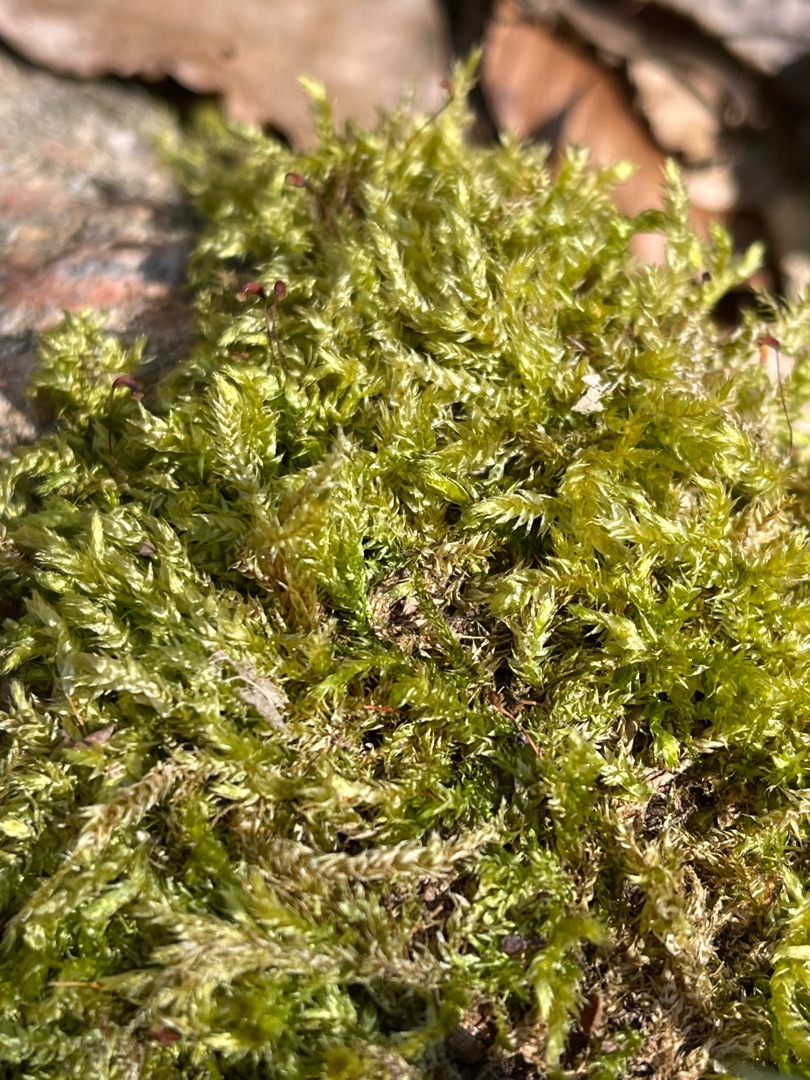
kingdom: Plantae
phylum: Bryophyta
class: Bryopsida
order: Hypnales
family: Brachytheciaceae
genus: Brachythecium
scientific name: Brachythecium rutabulum
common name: Almindelig kortkapsel
